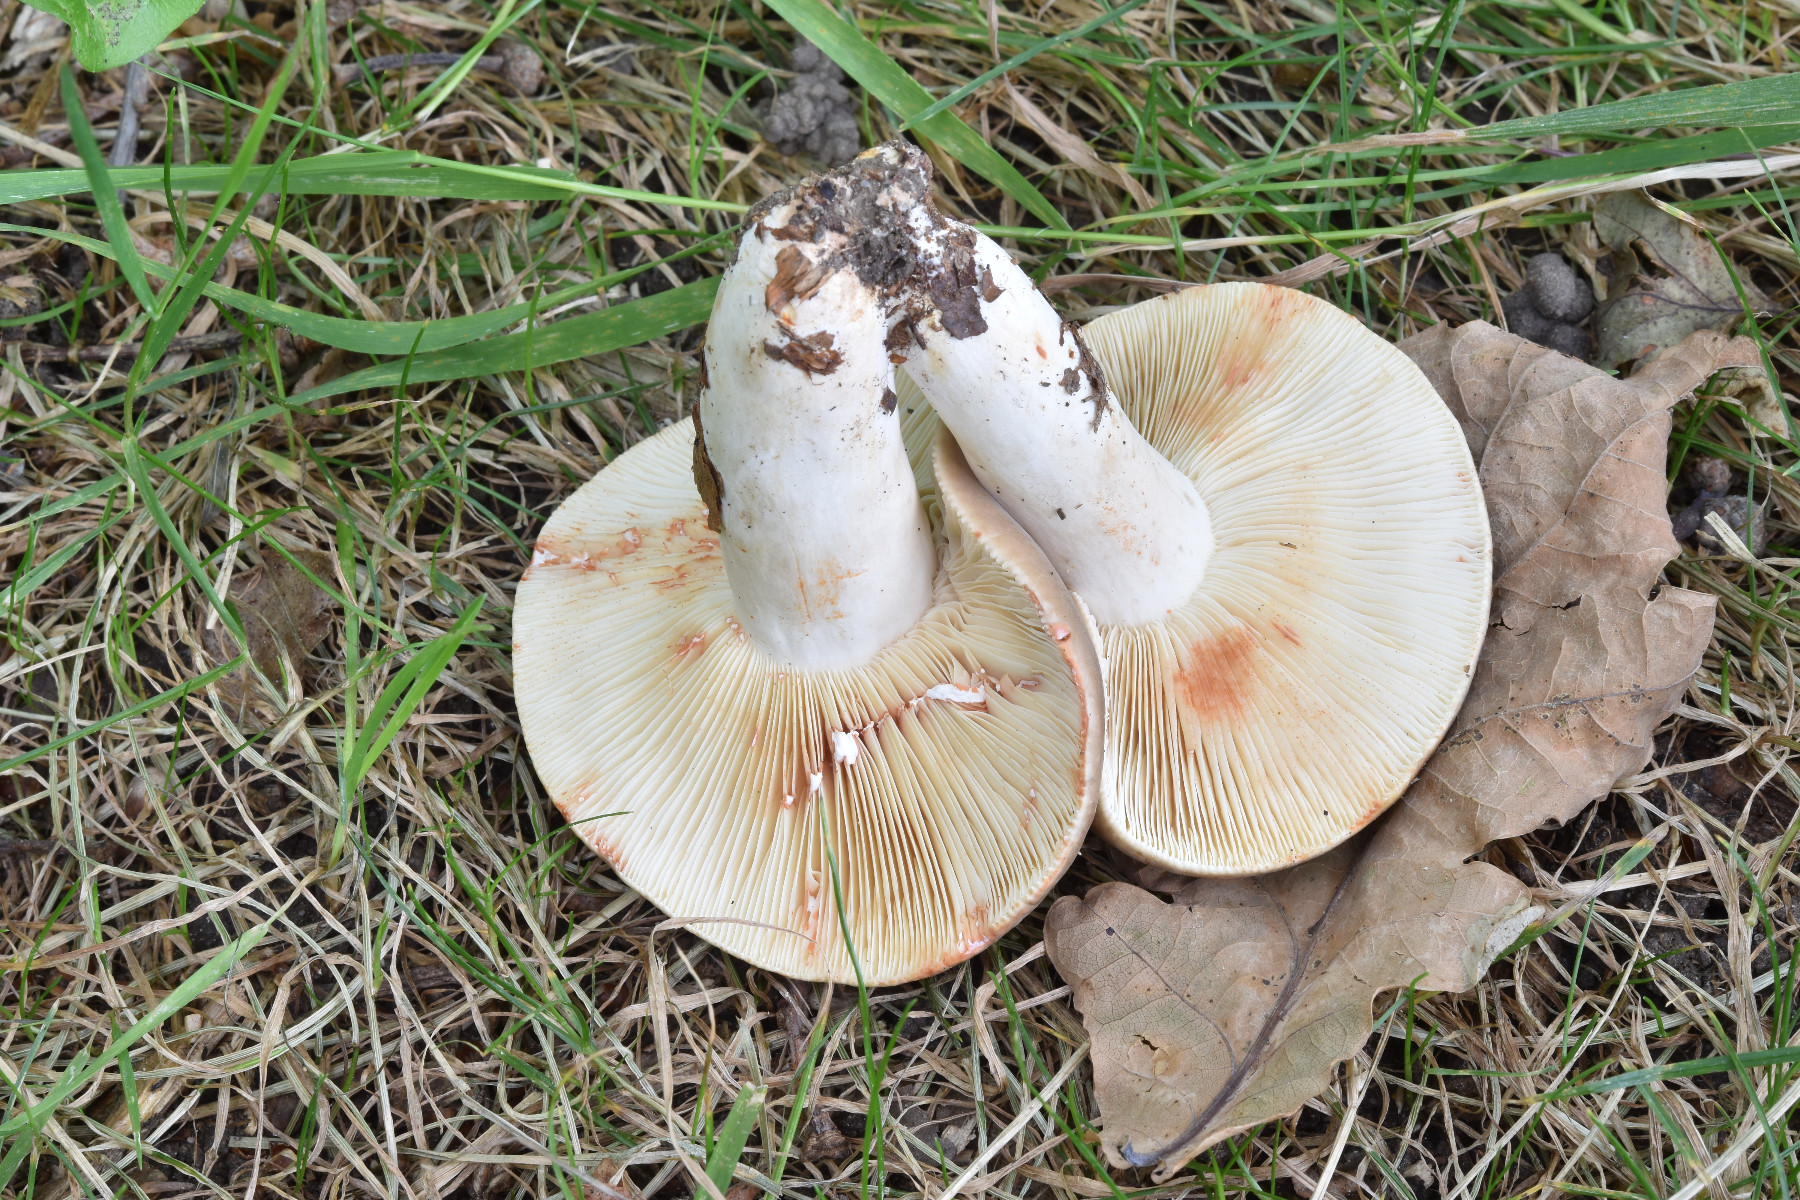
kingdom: Fungi
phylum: Basidiomycota
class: Agaricomycetes
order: Russulales
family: Russulaceae
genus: Lactarius
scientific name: Lactarius azonites
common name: røggrå mælkehat
